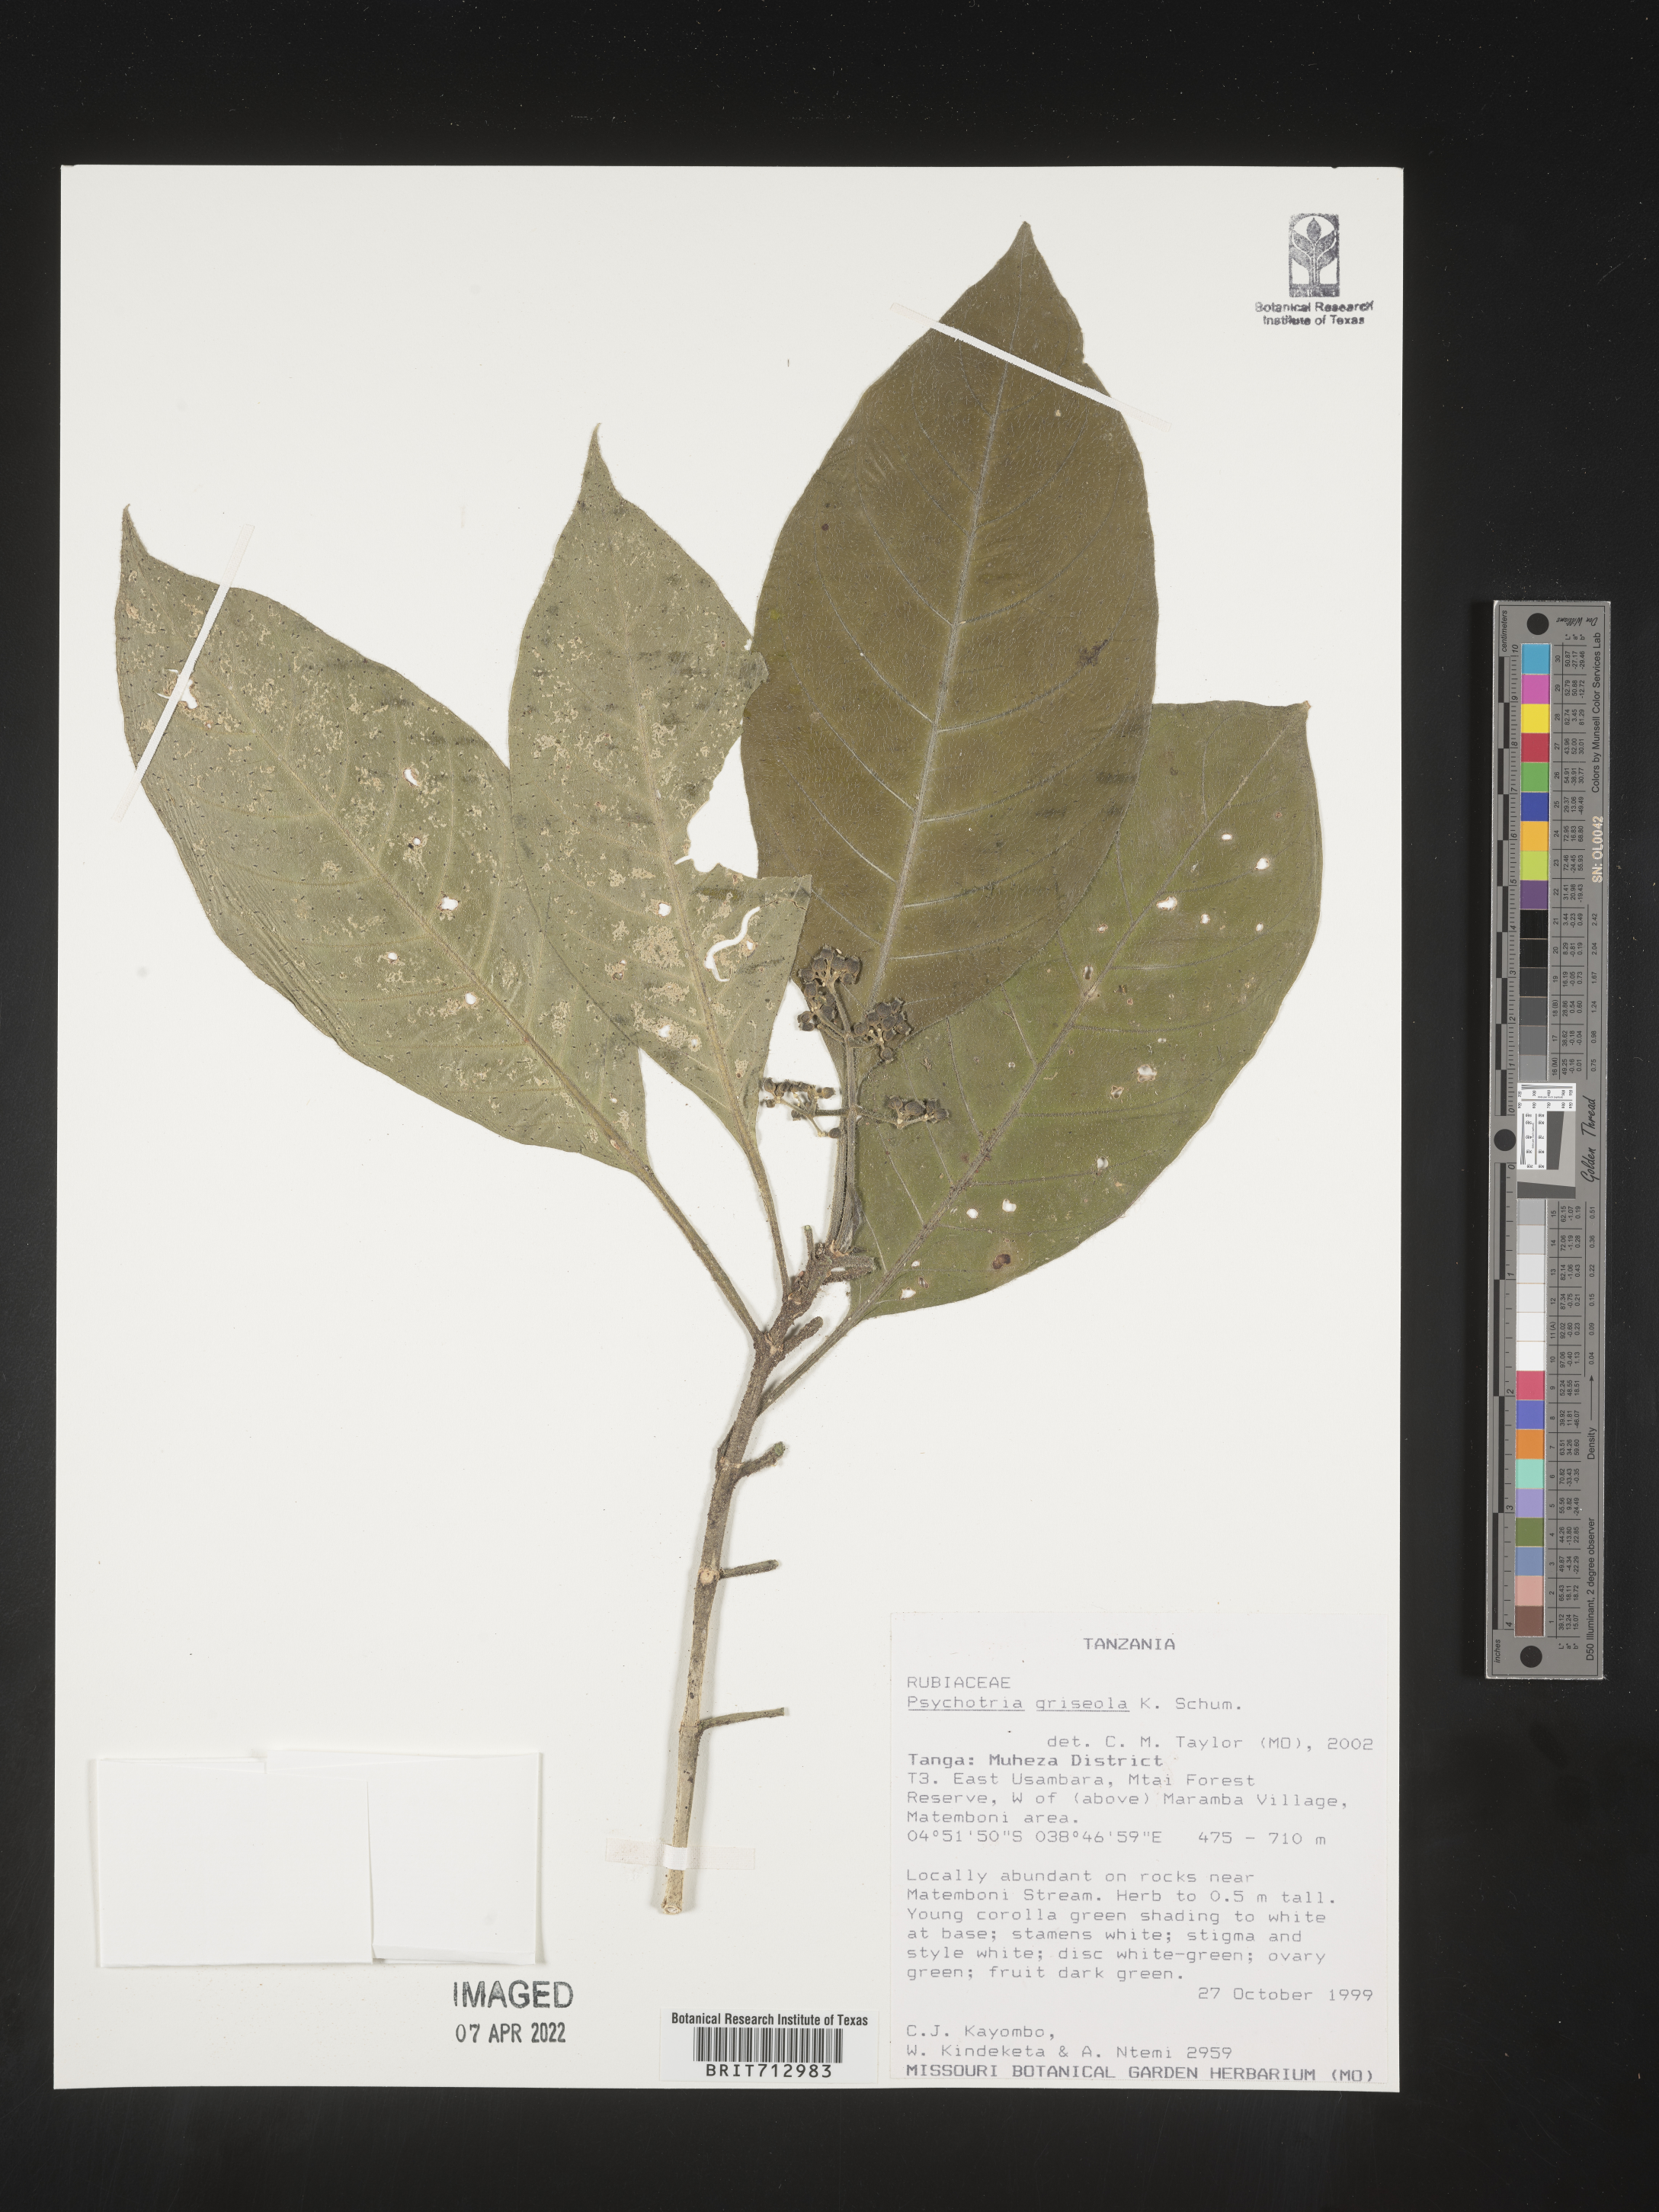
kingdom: Plantae
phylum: Tracheophyta
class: Magnoliopsida
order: Gentianales
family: Rubiaceae
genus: Psychotria
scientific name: Psychotria
